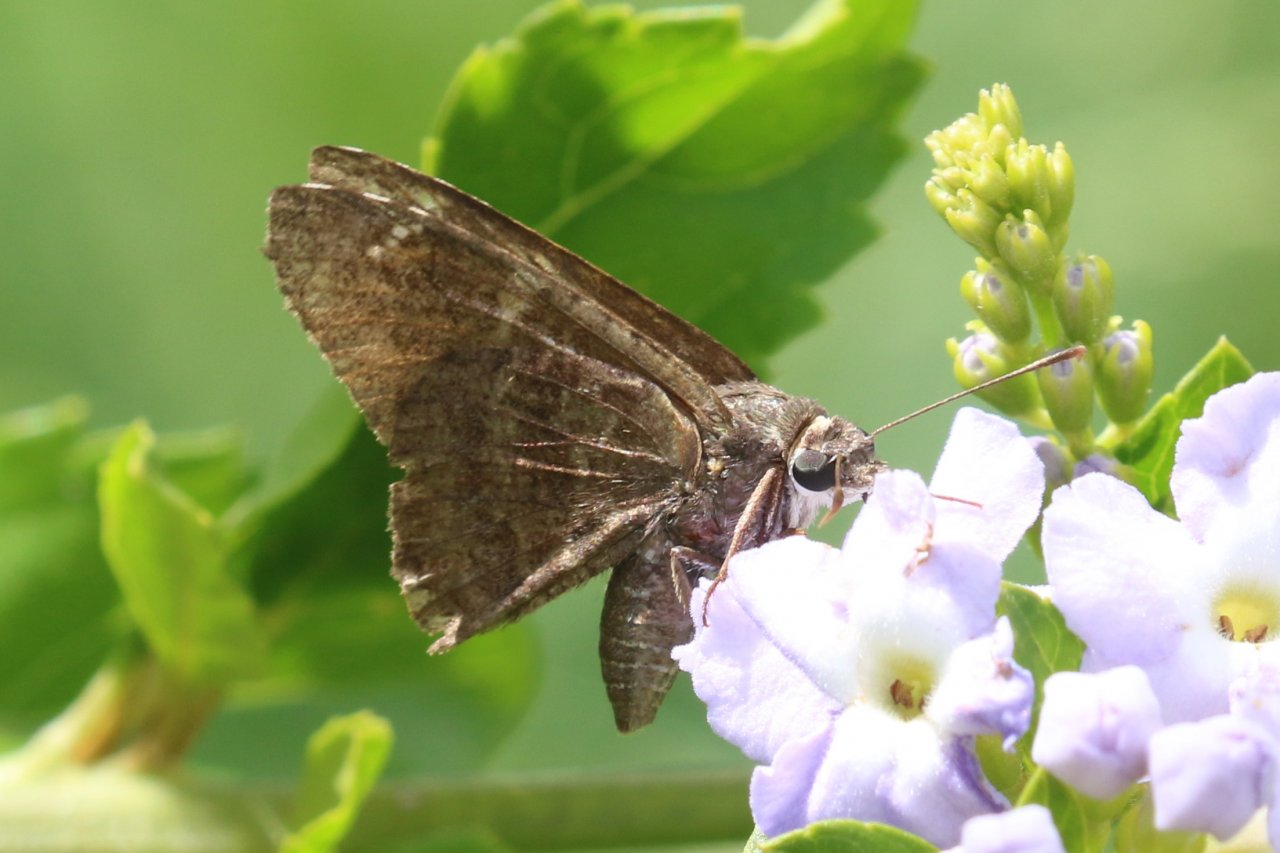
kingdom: Animalia
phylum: Arthropoda
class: Insecta
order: Lepidoptera
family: Hesperiidae
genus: Caicella
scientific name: Caicella calchas
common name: Mimosa Skipper
